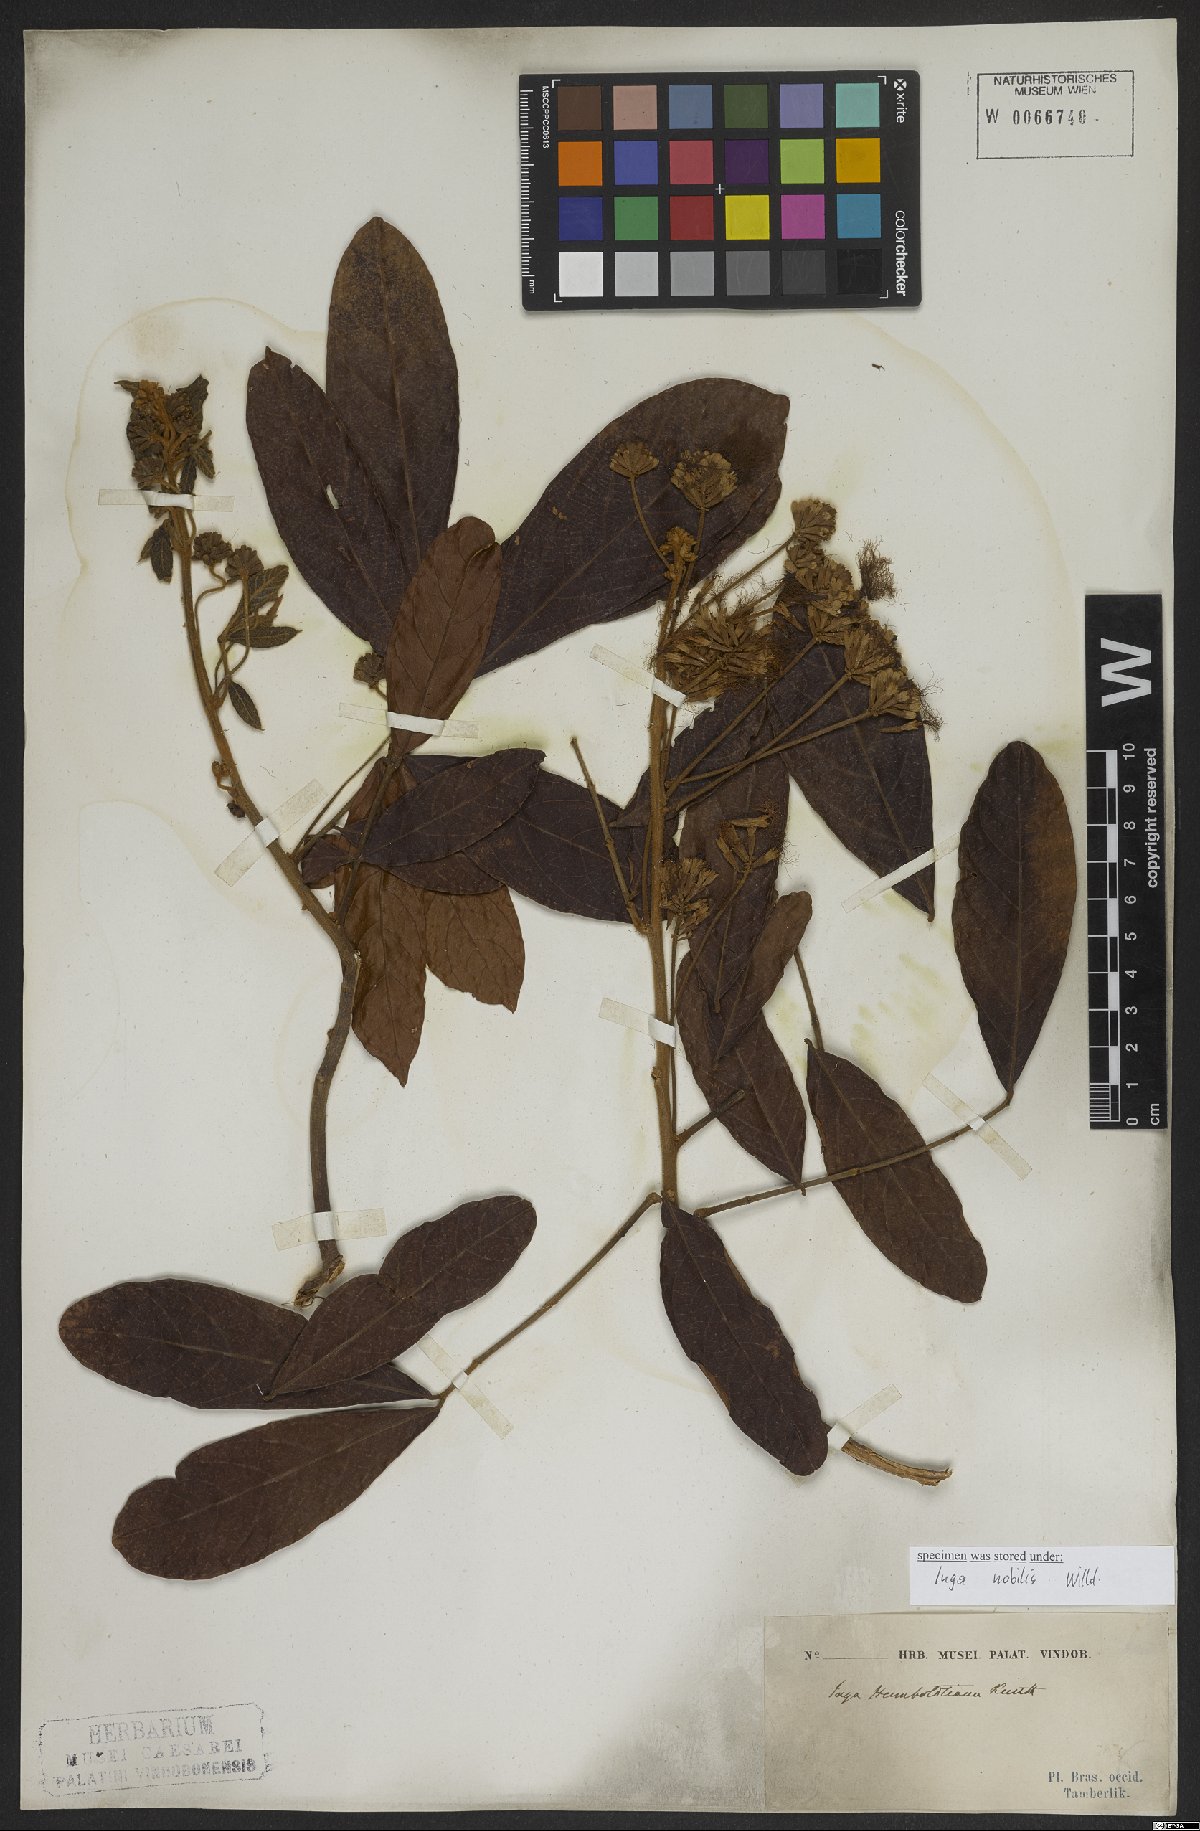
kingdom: Plantae
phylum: Tracheophyta
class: Magnoliopsida
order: Fabales
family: Fabaceae
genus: Inga
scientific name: Inga nobilis
